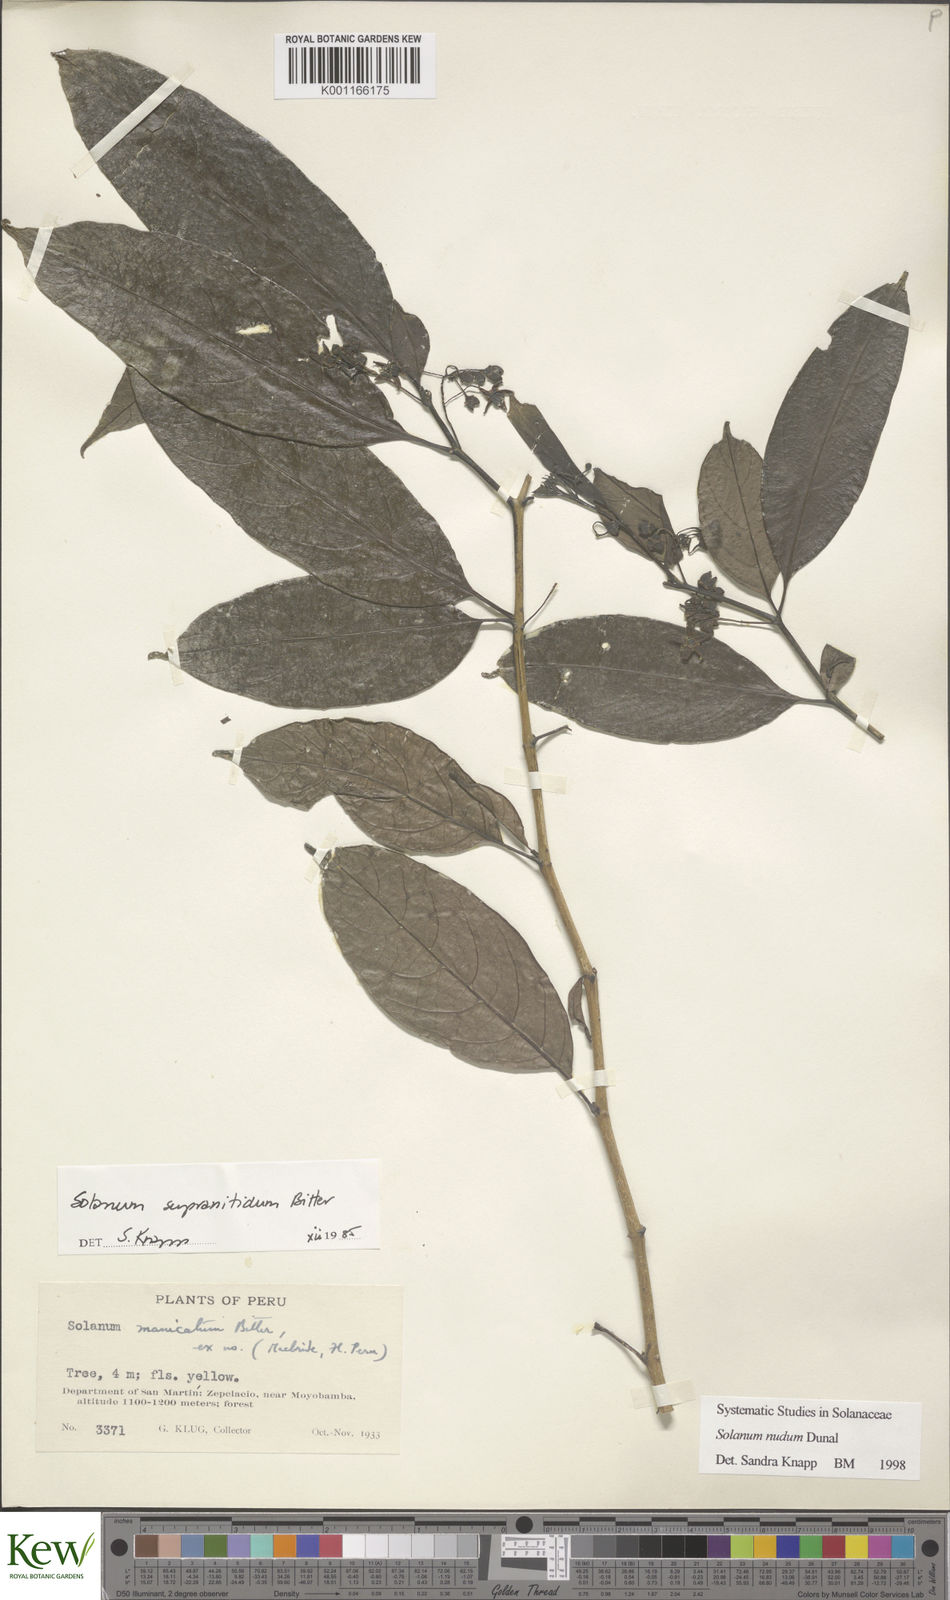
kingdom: Plantae
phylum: Tracheophyta
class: Magnoliopsida
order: Solanales
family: Solanaceae
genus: Solanum
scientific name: Solanum nudum
